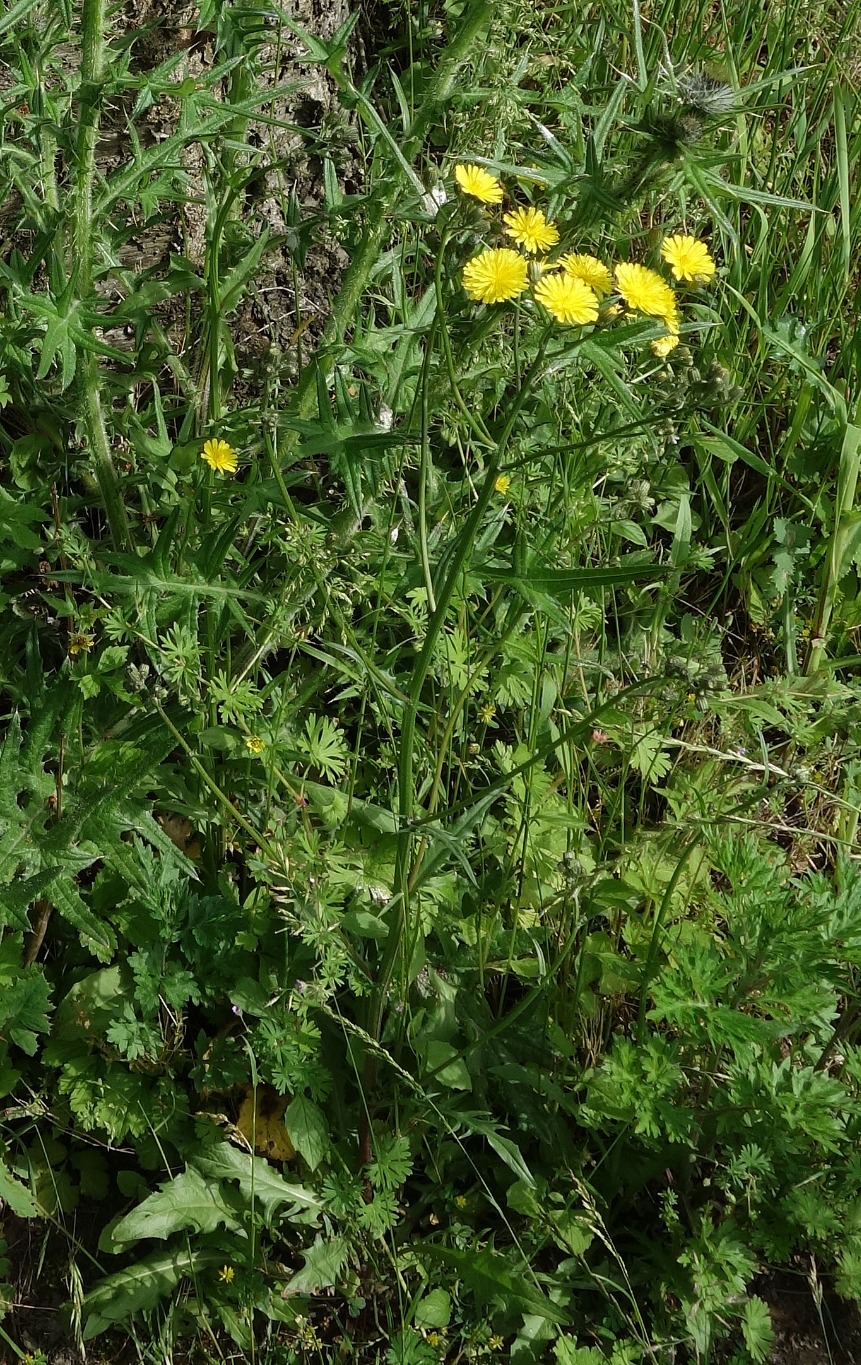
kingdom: Plantae
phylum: Tracheophyta
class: Magnoliopsida
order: Asterales
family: Asteraceae
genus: Crepis
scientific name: Crepis capillaris
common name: Grøn høgeskæg
